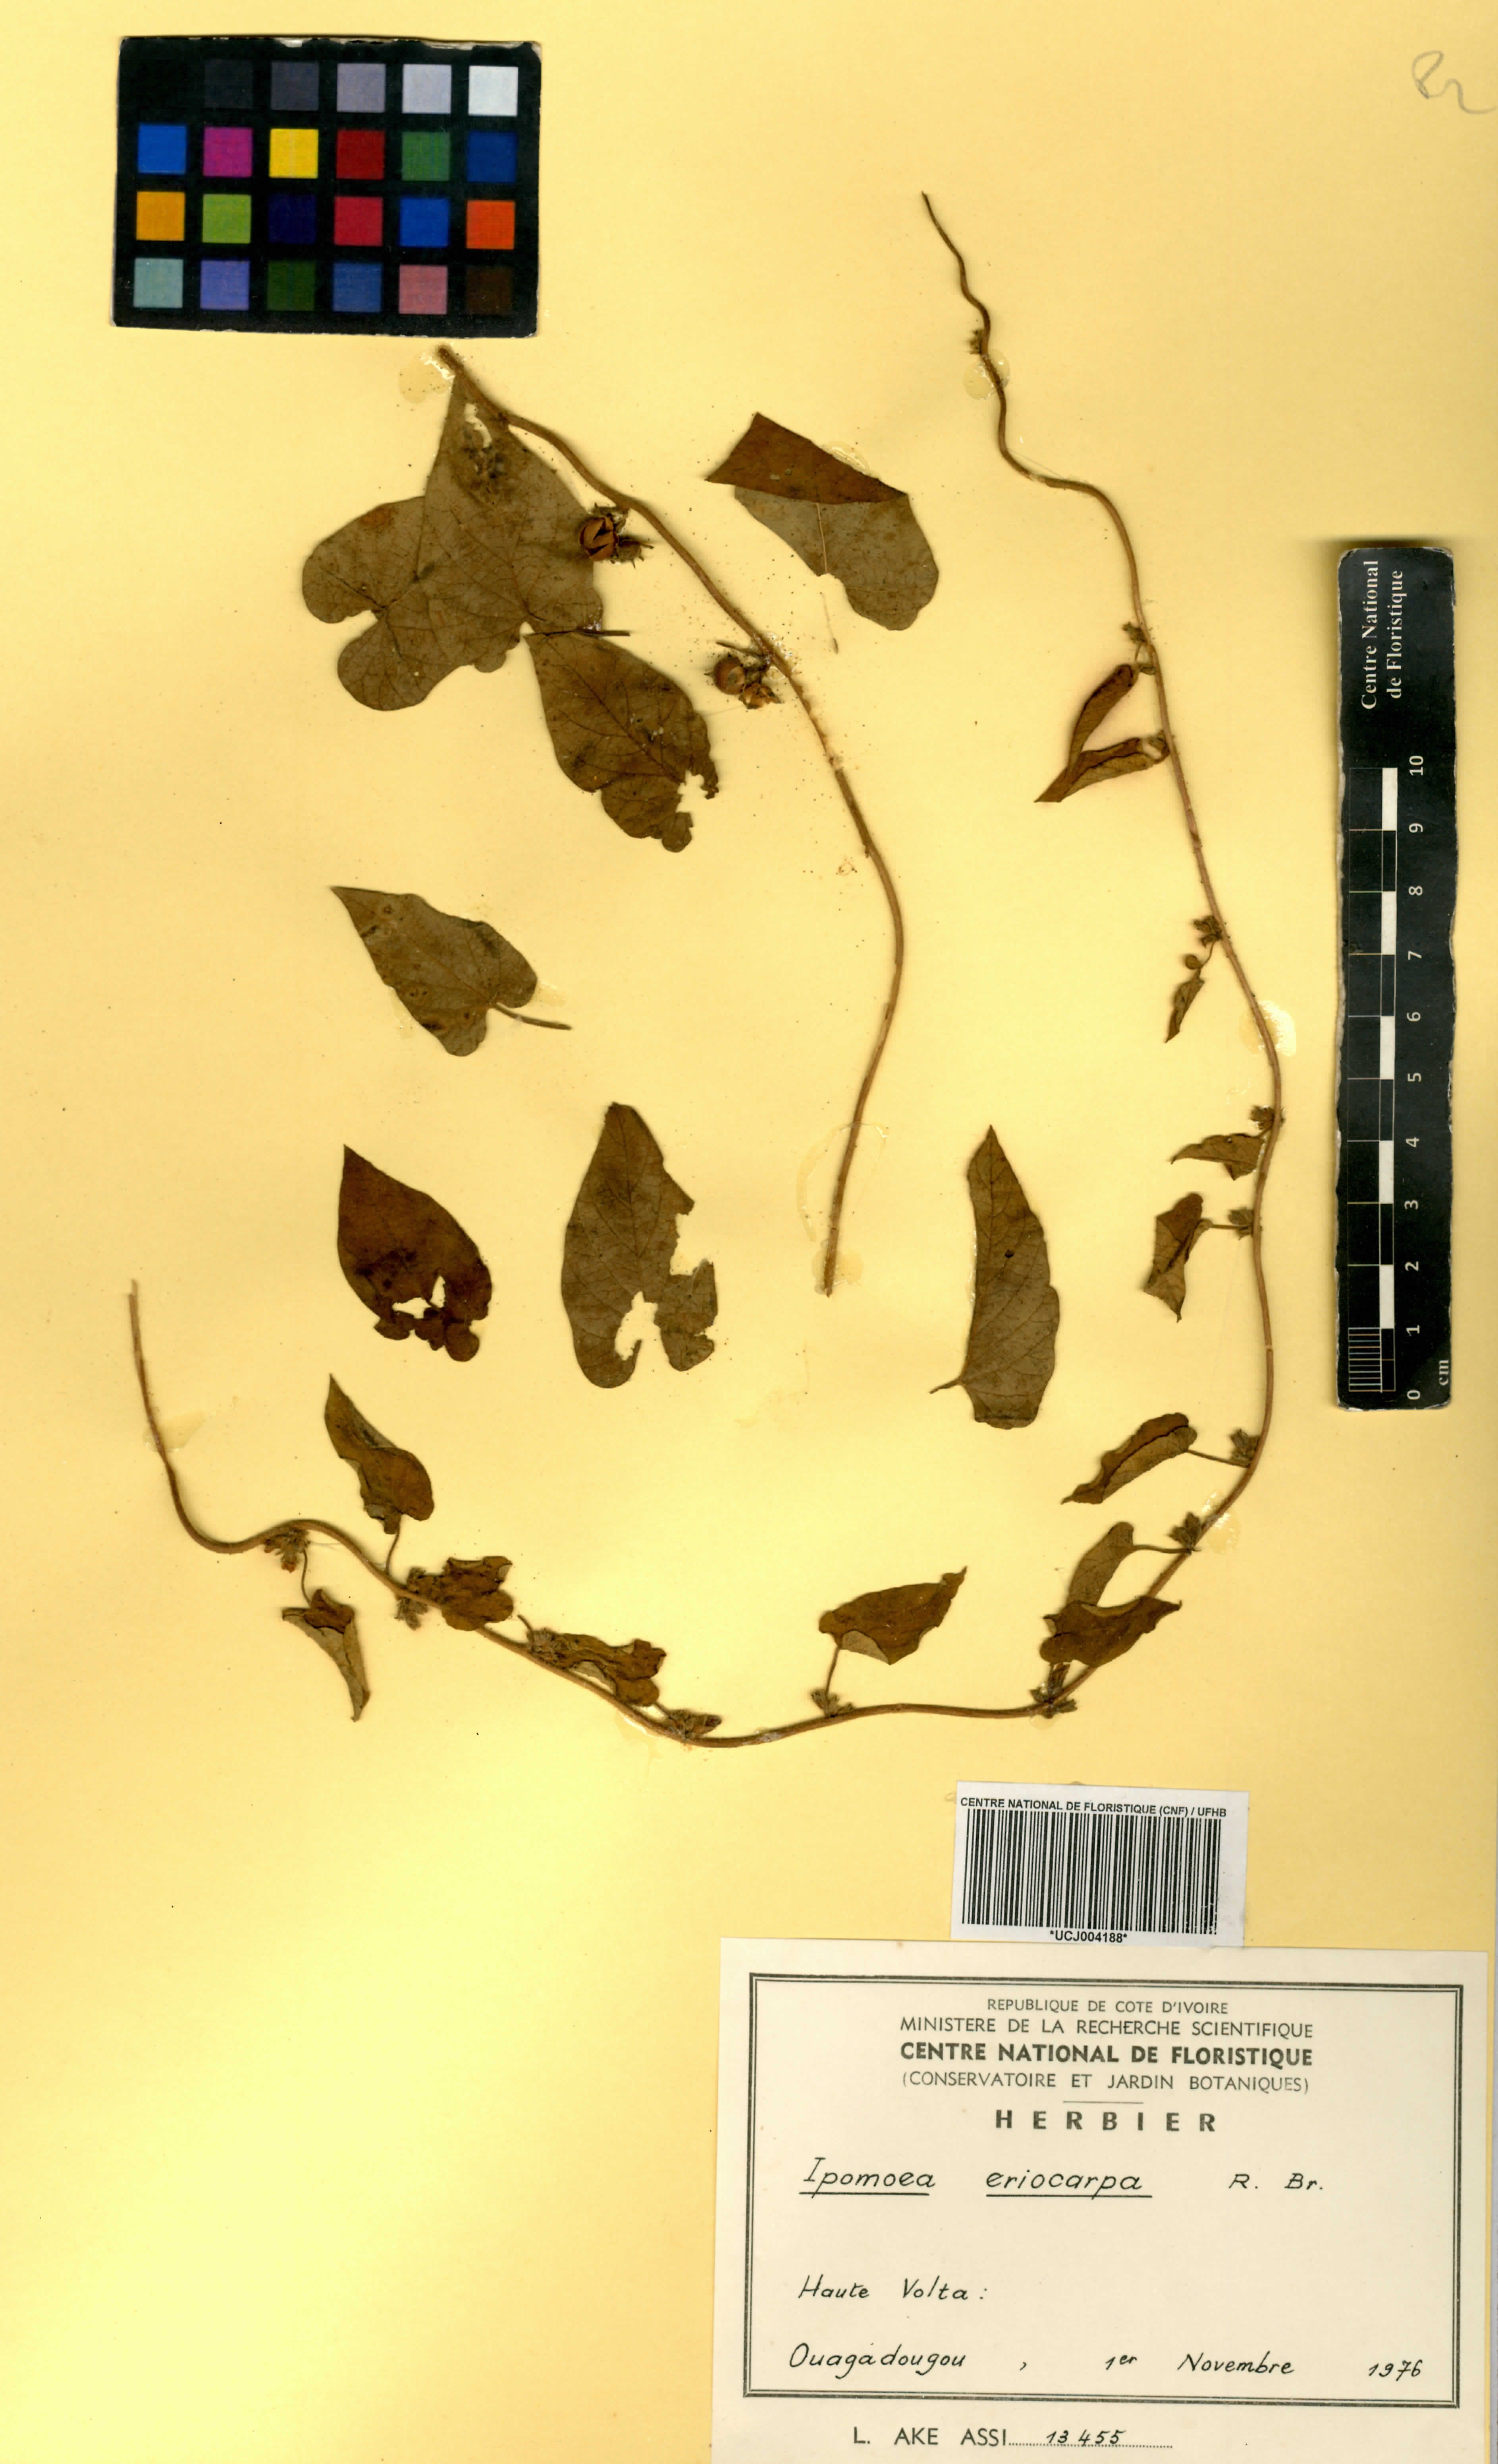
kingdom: Plantae
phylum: Tracheophyta
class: Magnoliopsida
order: Solanales
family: Convolvulaceae
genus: Ipomoea
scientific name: Ipomoea eriocarpa
